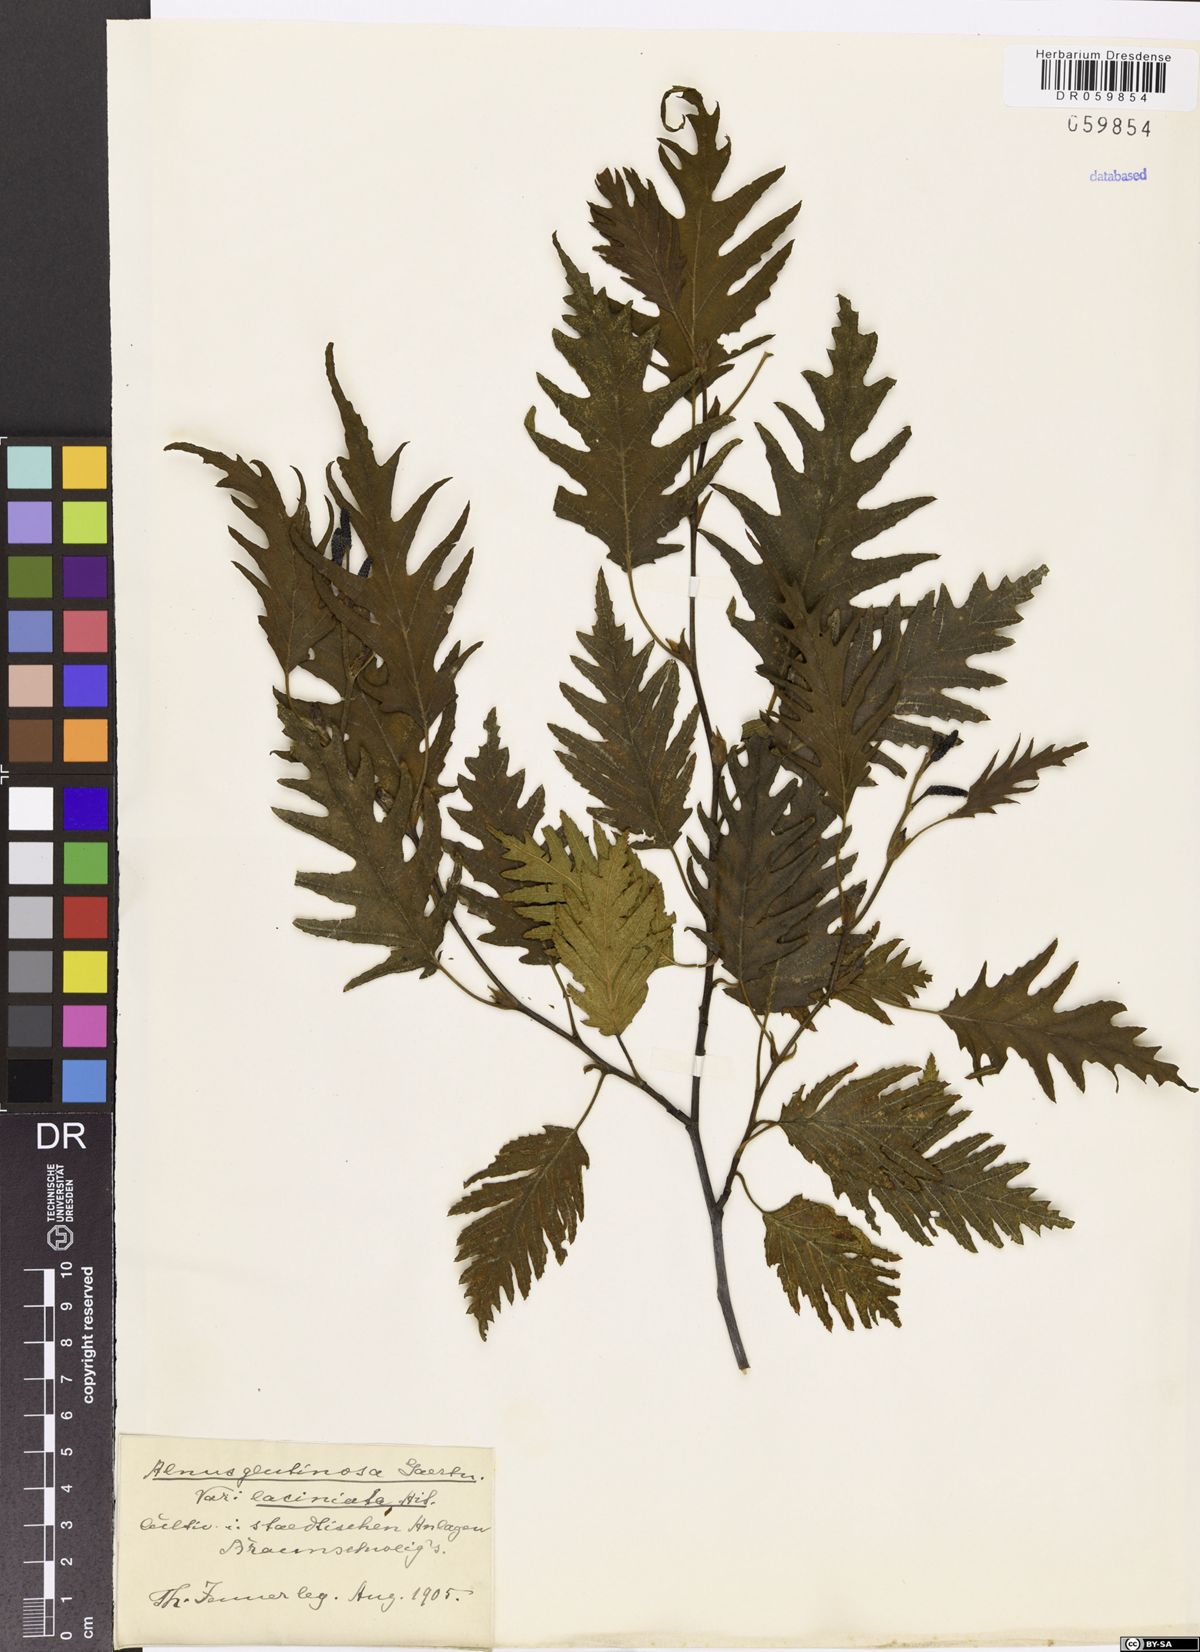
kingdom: Plantae
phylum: Tracheophyta
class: Magnoliopsida
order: Fagales
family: Betulaceae
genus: Alnus
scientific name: Alnus glutinosa
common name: Black alder
